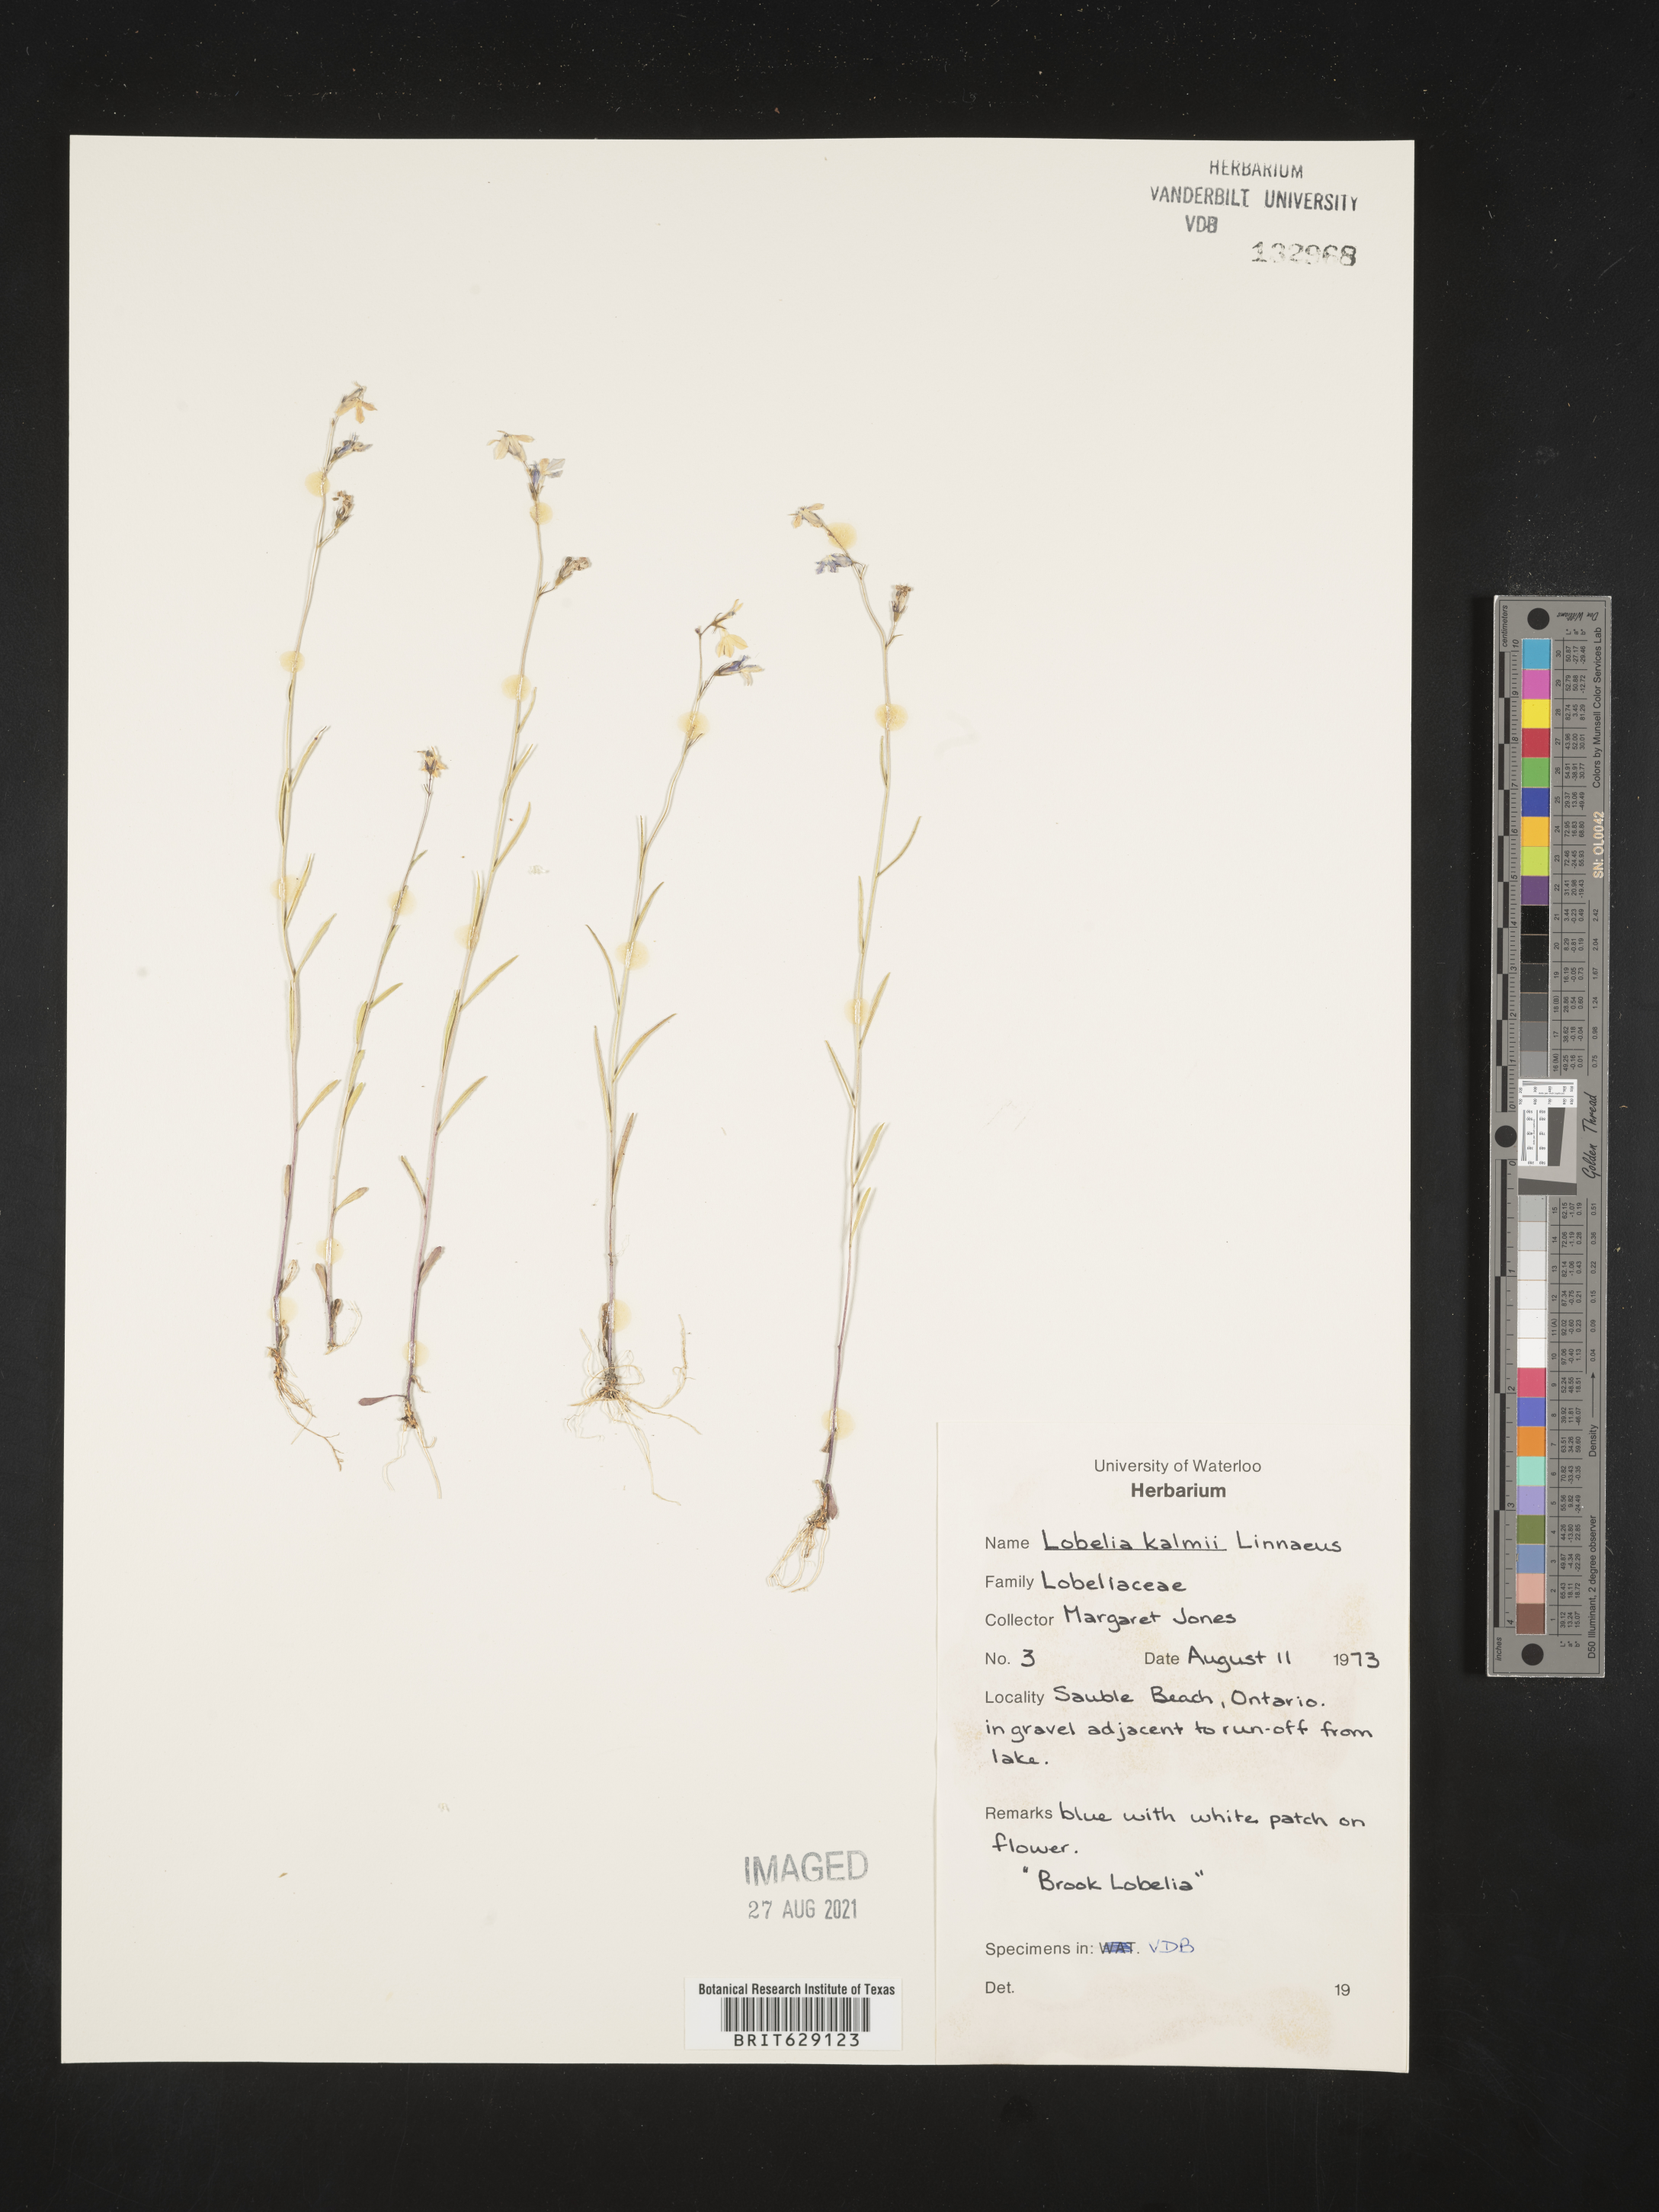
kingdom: Plantae
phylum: Tracheophyta
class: Magnoliopsida
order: Asterales
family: Campanulaceae
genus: Lobelia
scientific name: Lobelia kalmii
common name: Kalm's lobelia
